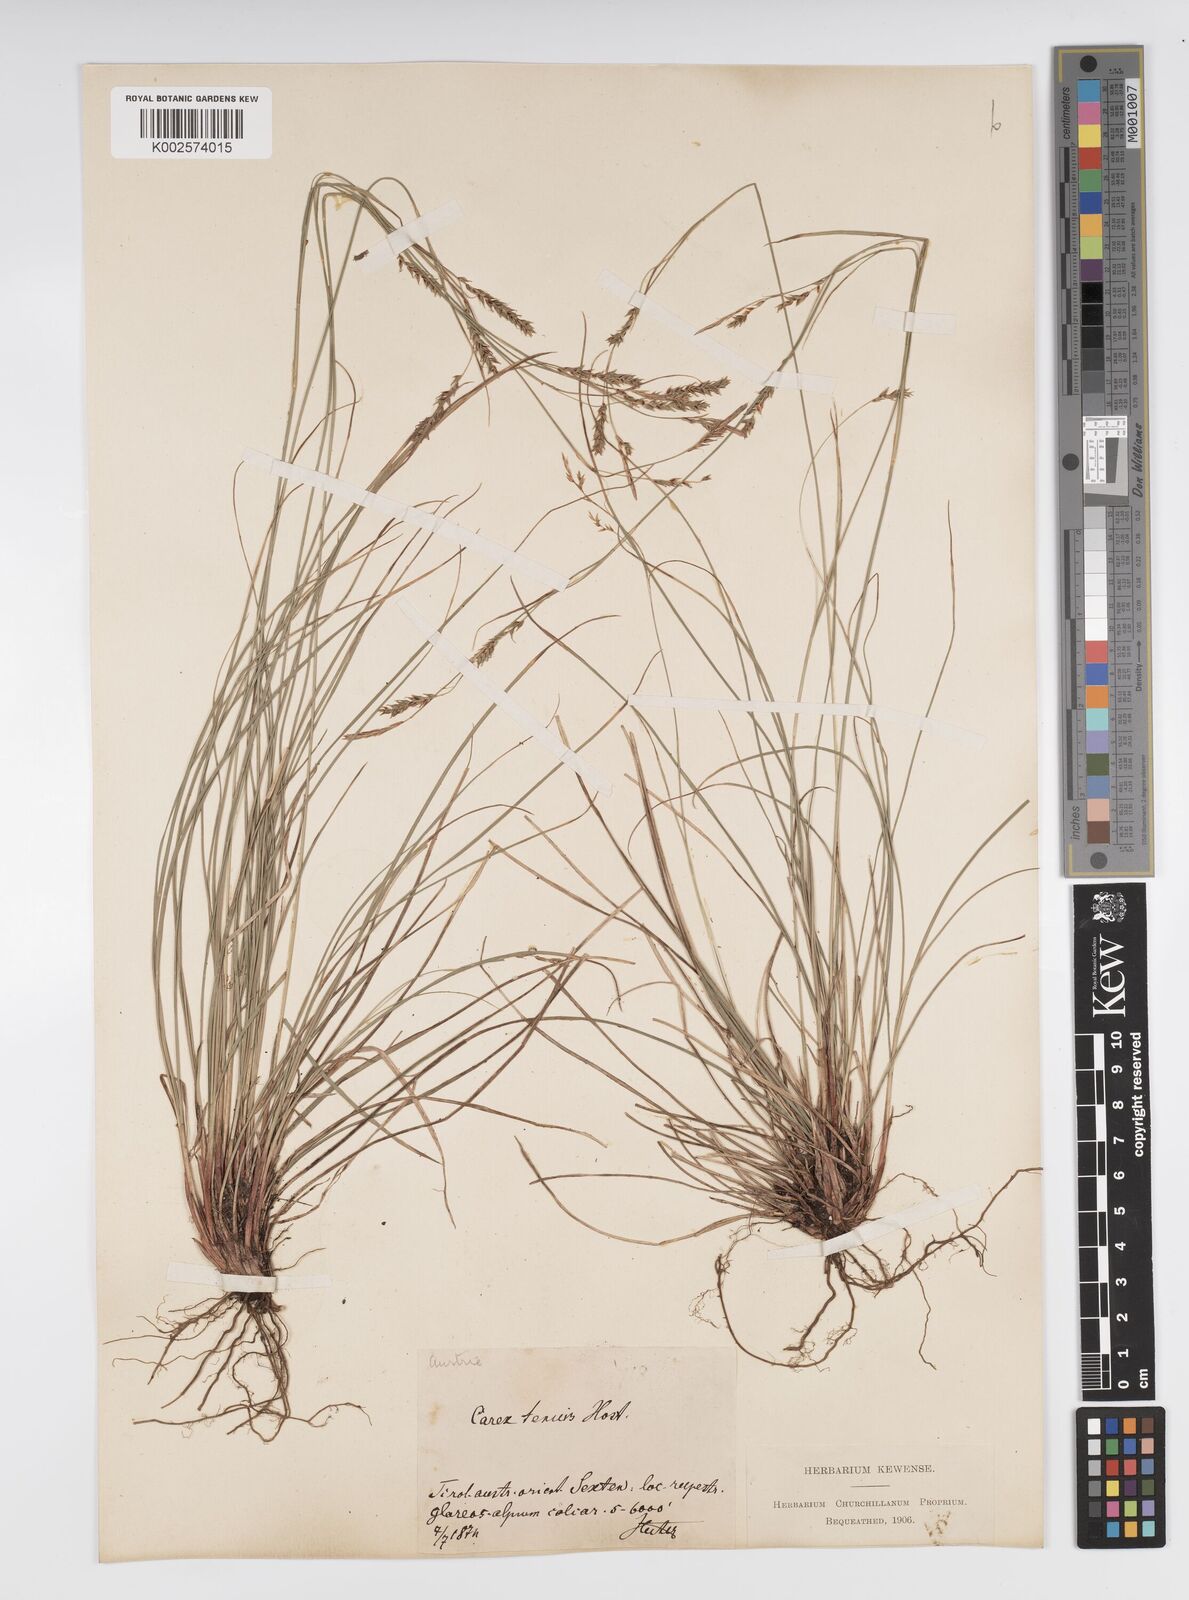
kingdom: Plantae
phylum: Tracheophyta
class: Liliopsida
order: Poales
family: Cyperaceae
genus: Carex
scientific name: Carex brachystachys
